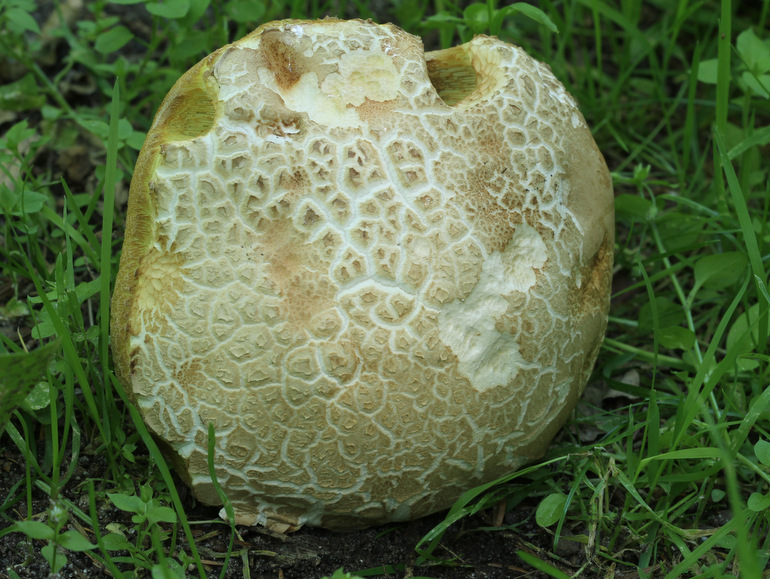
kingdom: Fungi
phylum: Basidiomycota
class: Agaricomycetes
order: Boletales
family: Boletaceae
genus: Boletus
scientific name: Boletus reticulatus
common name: sommer-rørhat
